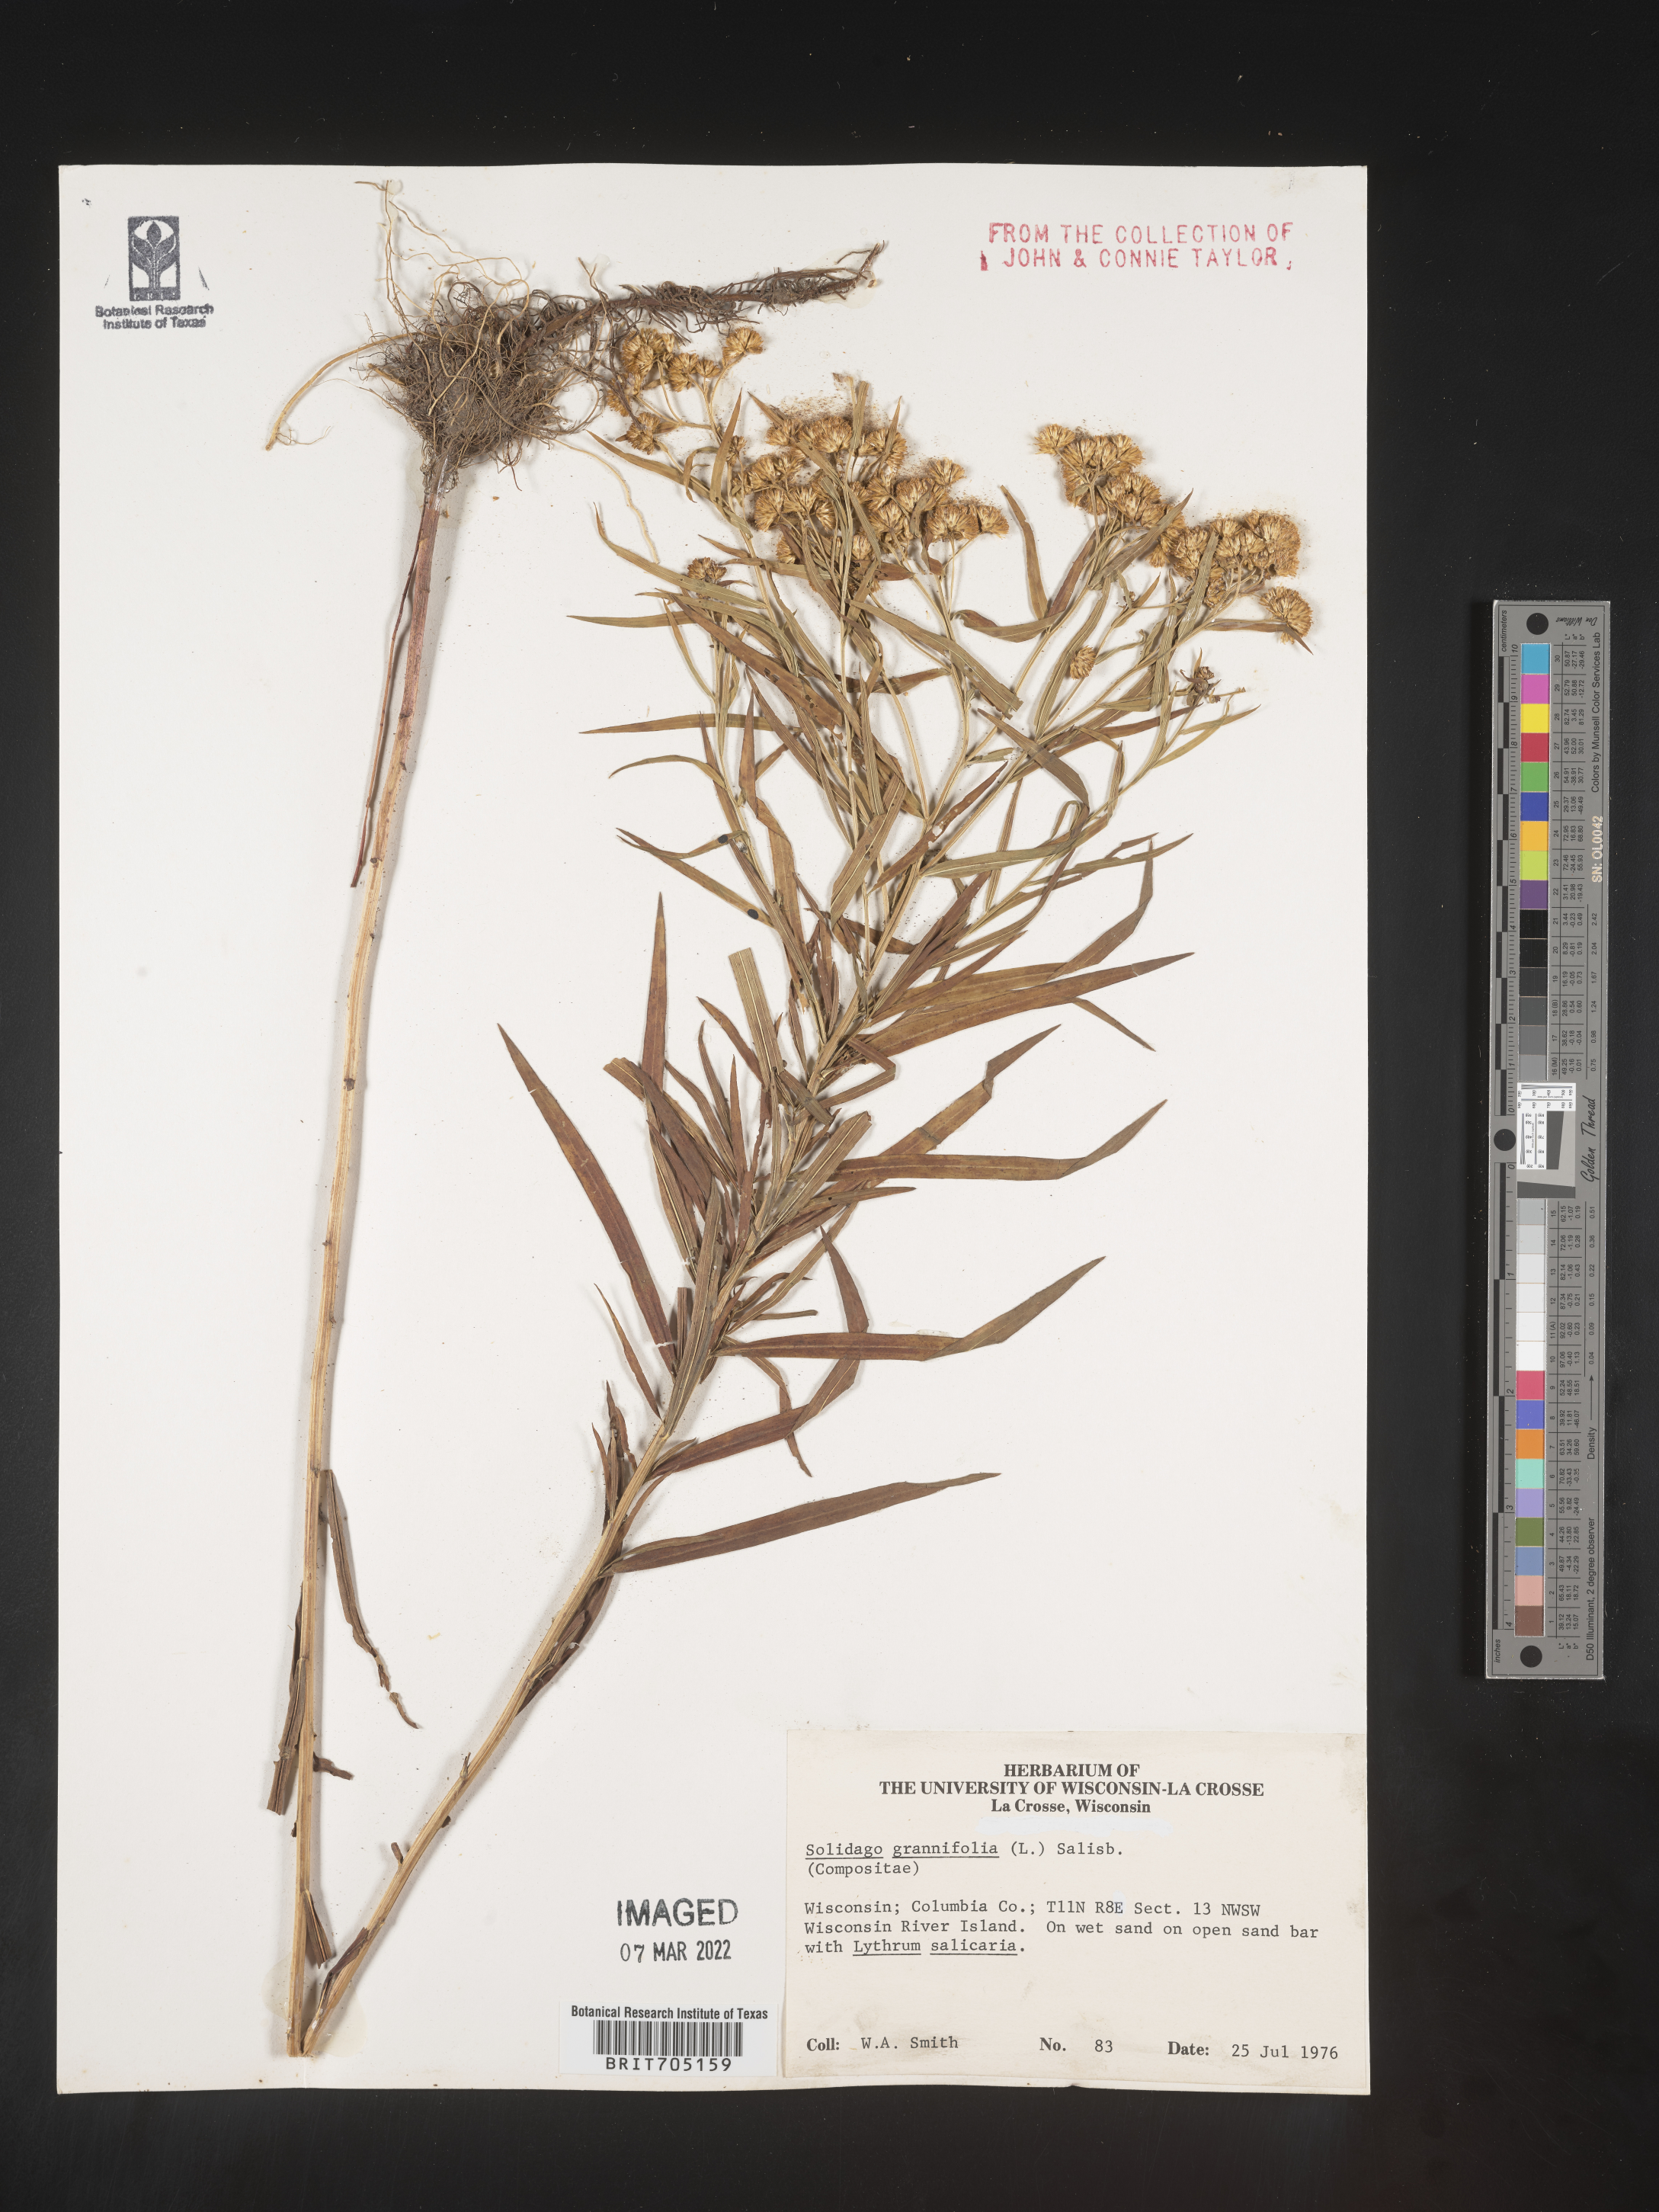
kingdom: Plantae
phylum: Tracheophyta
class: Magnoliopsida
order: Asterales
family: Asteraceae
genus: Euthamia
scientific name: Euthamia graminifolia
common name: Common goldentop
